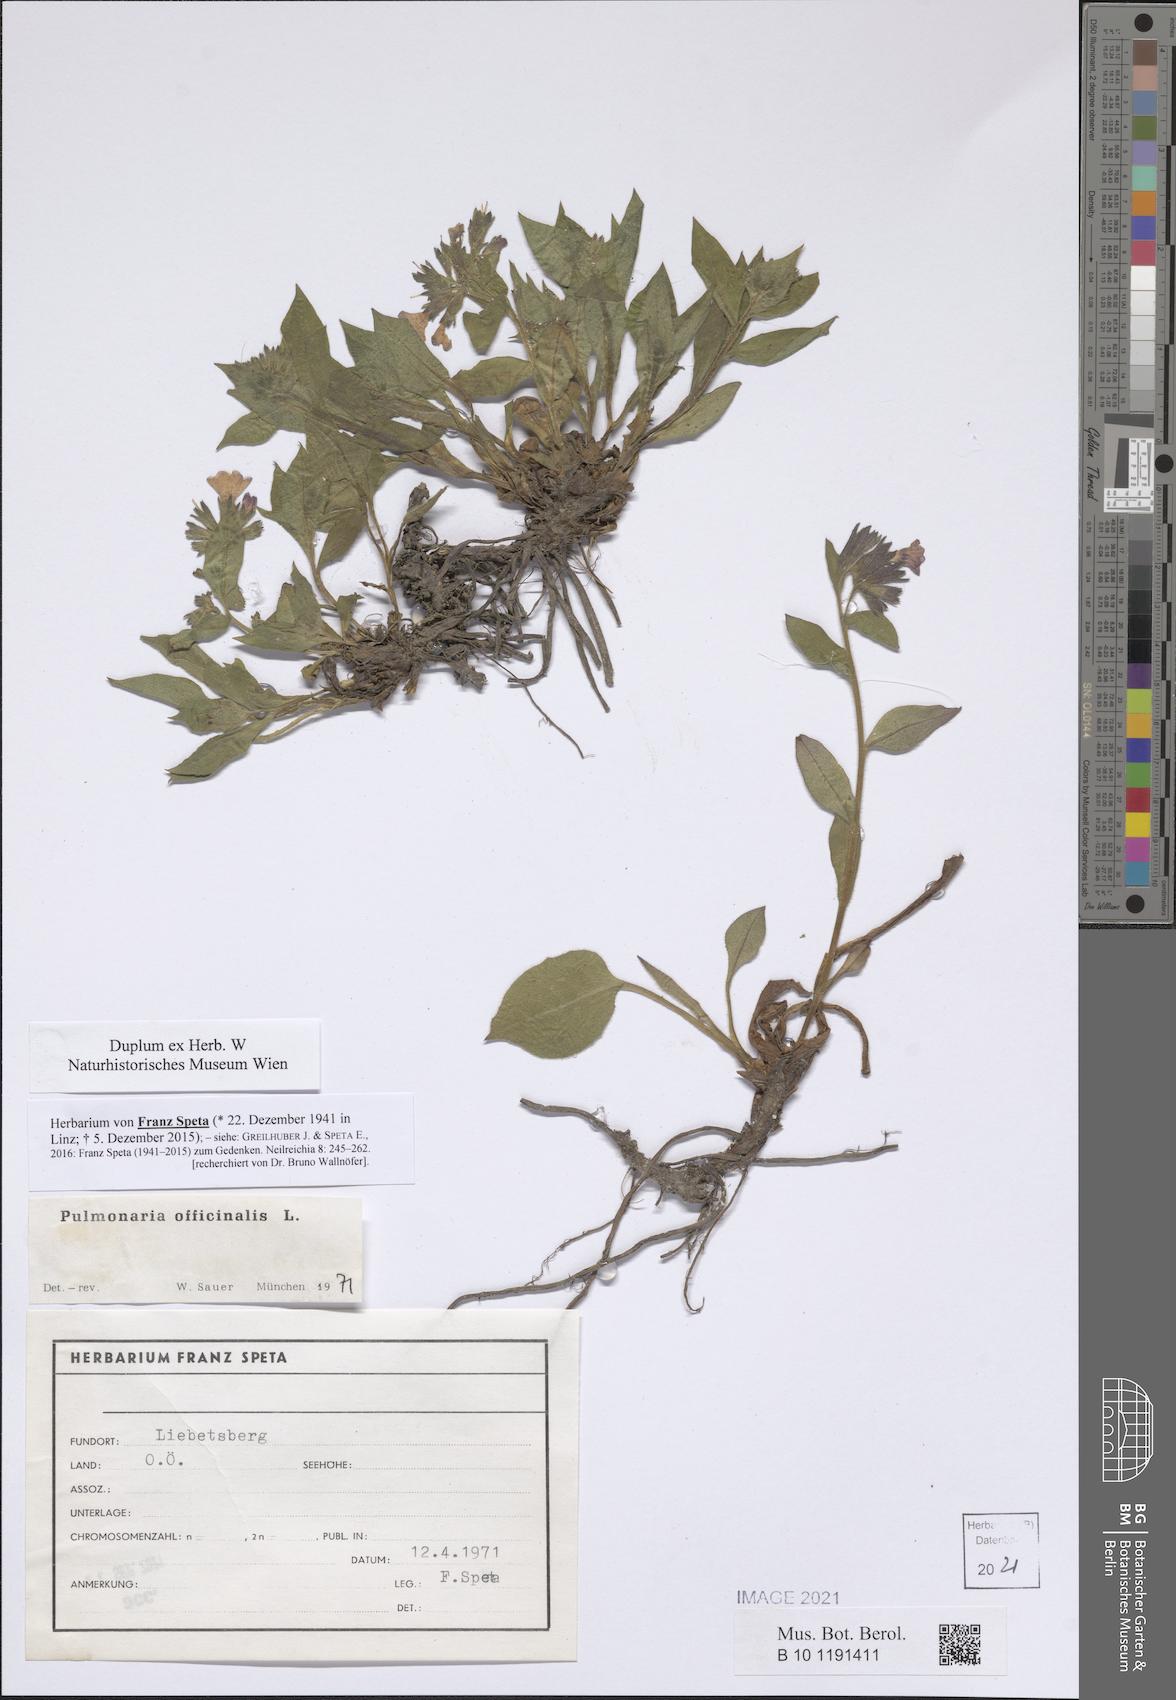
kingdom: Plantae
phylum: Tracheophyta
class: Magnoliopsida
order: Boraginales
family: Boraginaceae
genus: Pulmonaria
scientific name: Pulmonaria officinalis
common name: Lungwort
